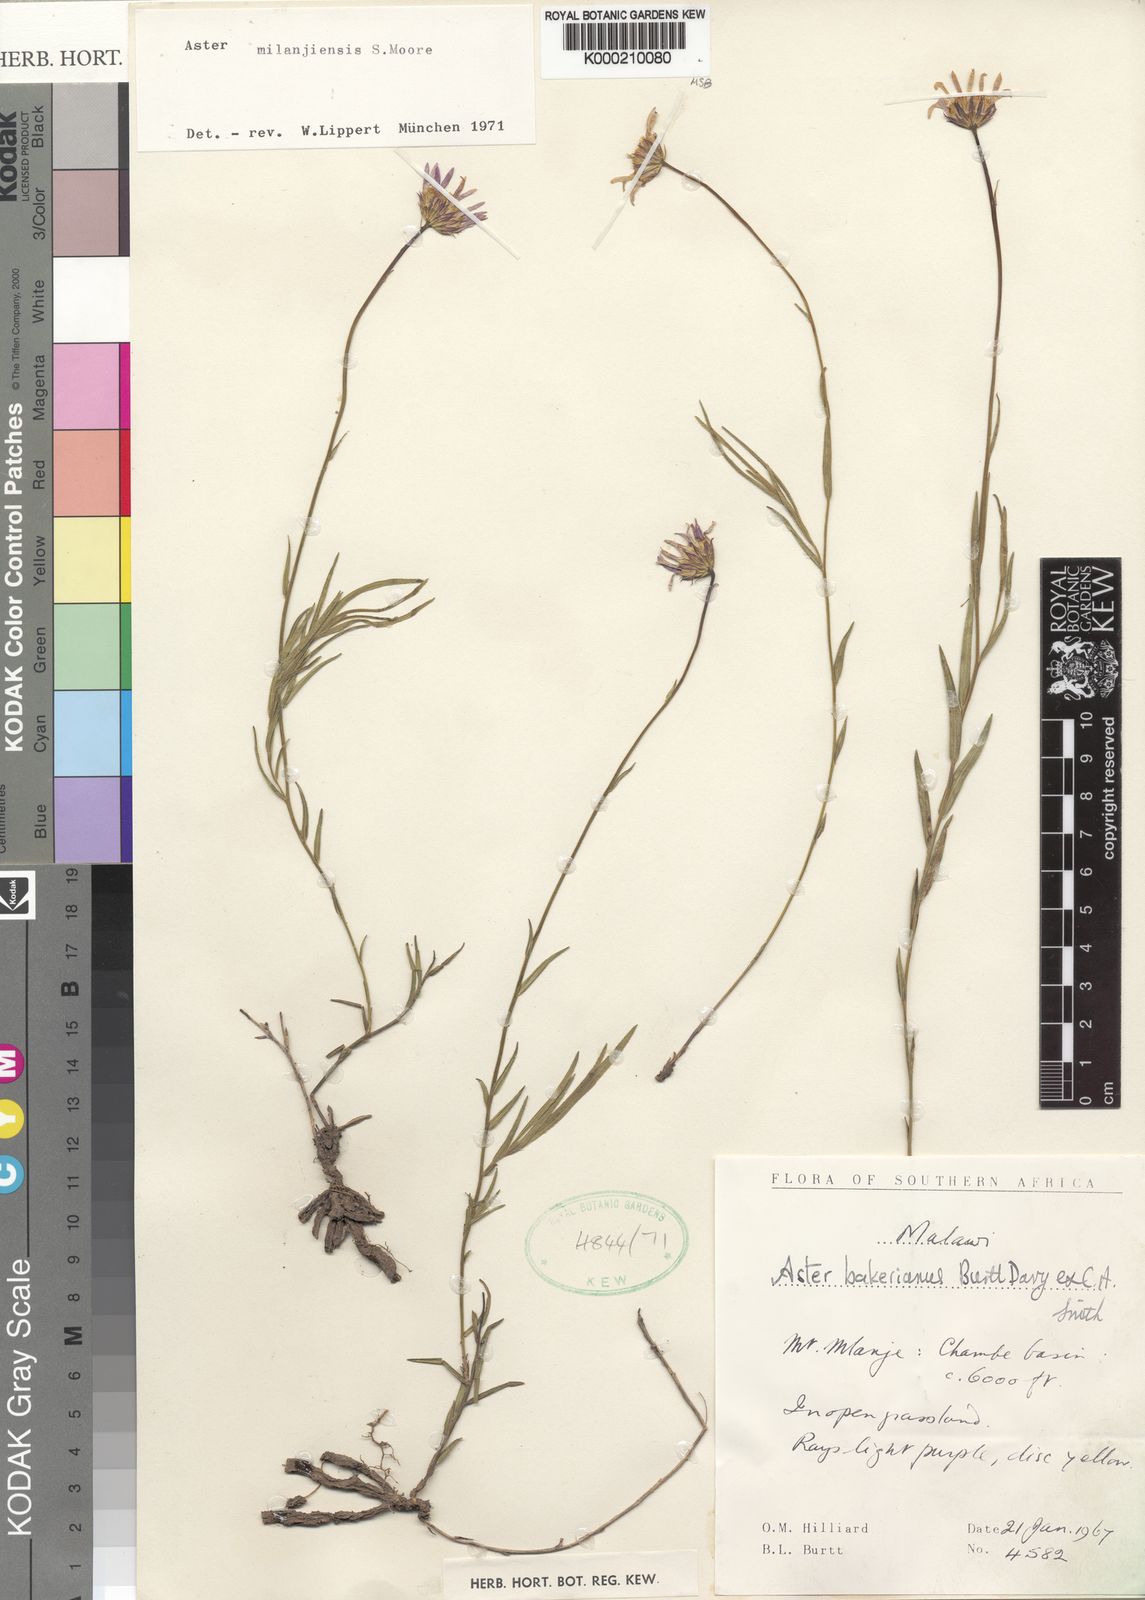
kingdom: Plantae
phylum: Tracheophyta
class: Magnoliopsida
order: Asterales
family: Asteraceae
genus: Afroaster
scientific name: Afroaster milanjiensis
